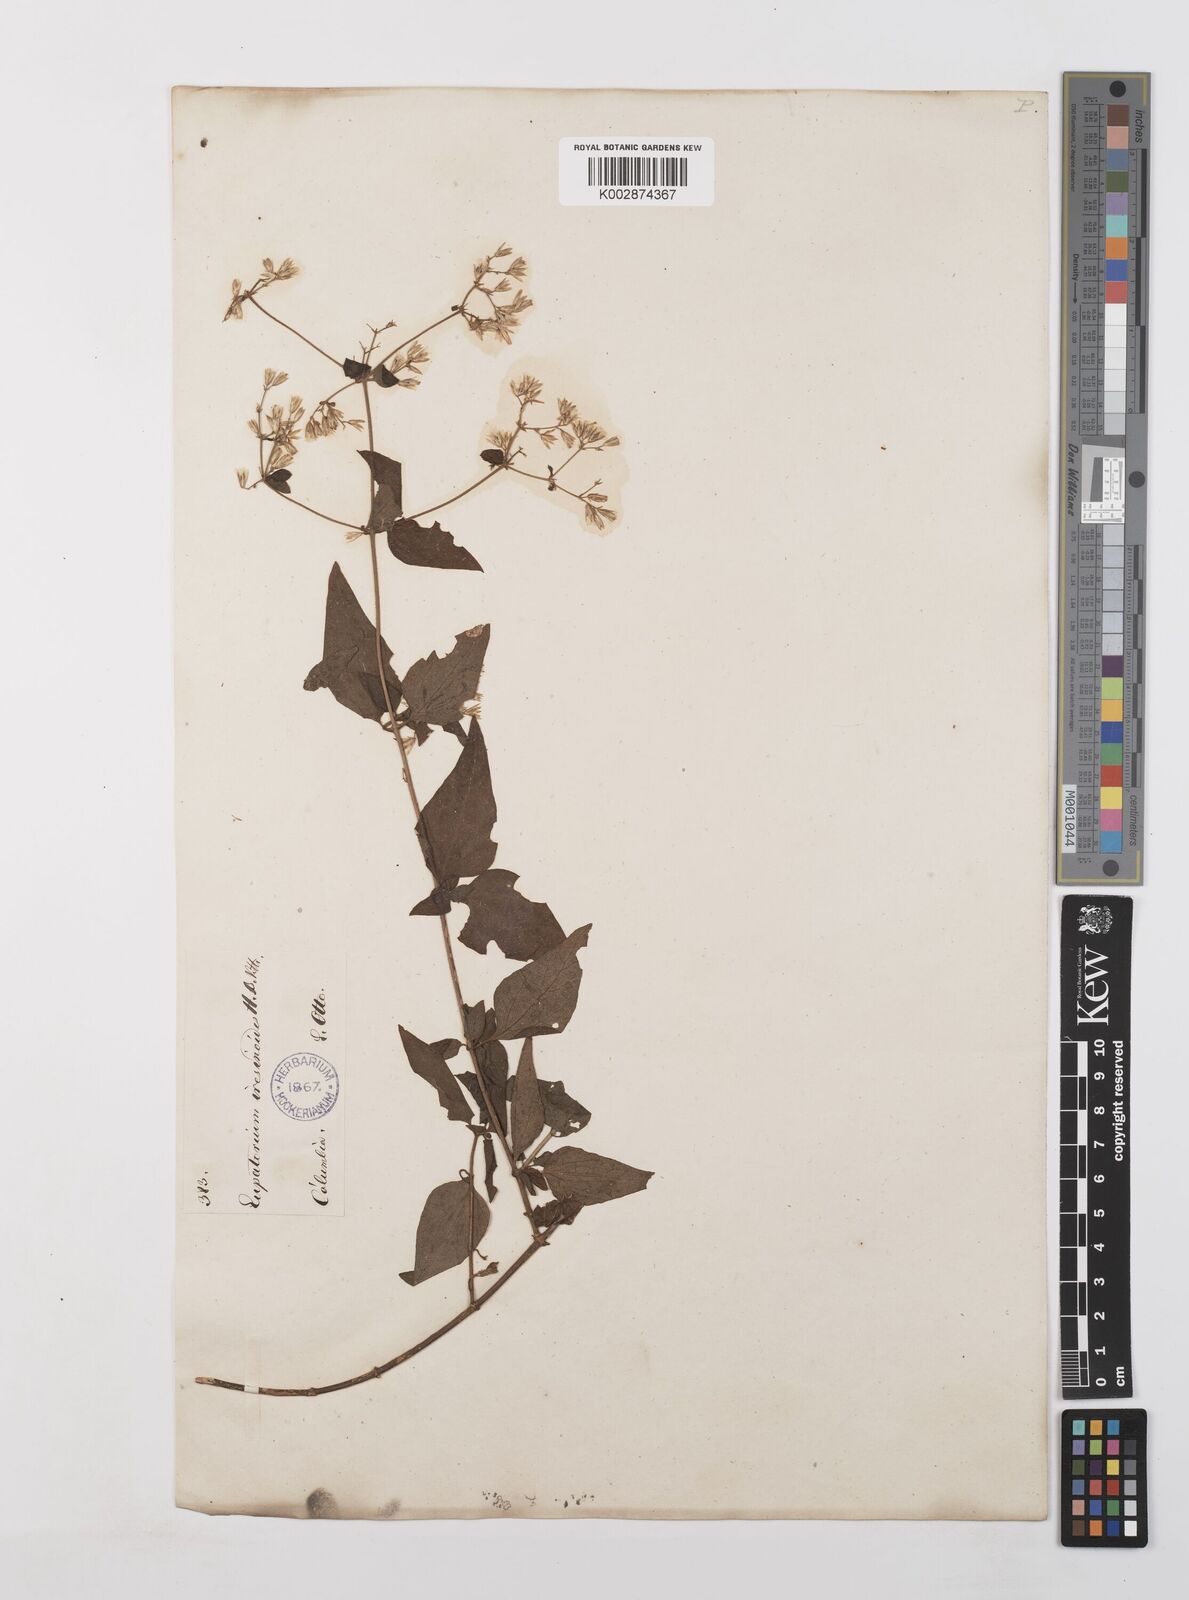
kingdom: Plantae
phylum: Tracheophyta
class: Magnoliopsida
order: Asterales
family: Asteraceae
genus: Condylidium
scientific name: Condylidium iresinoides
